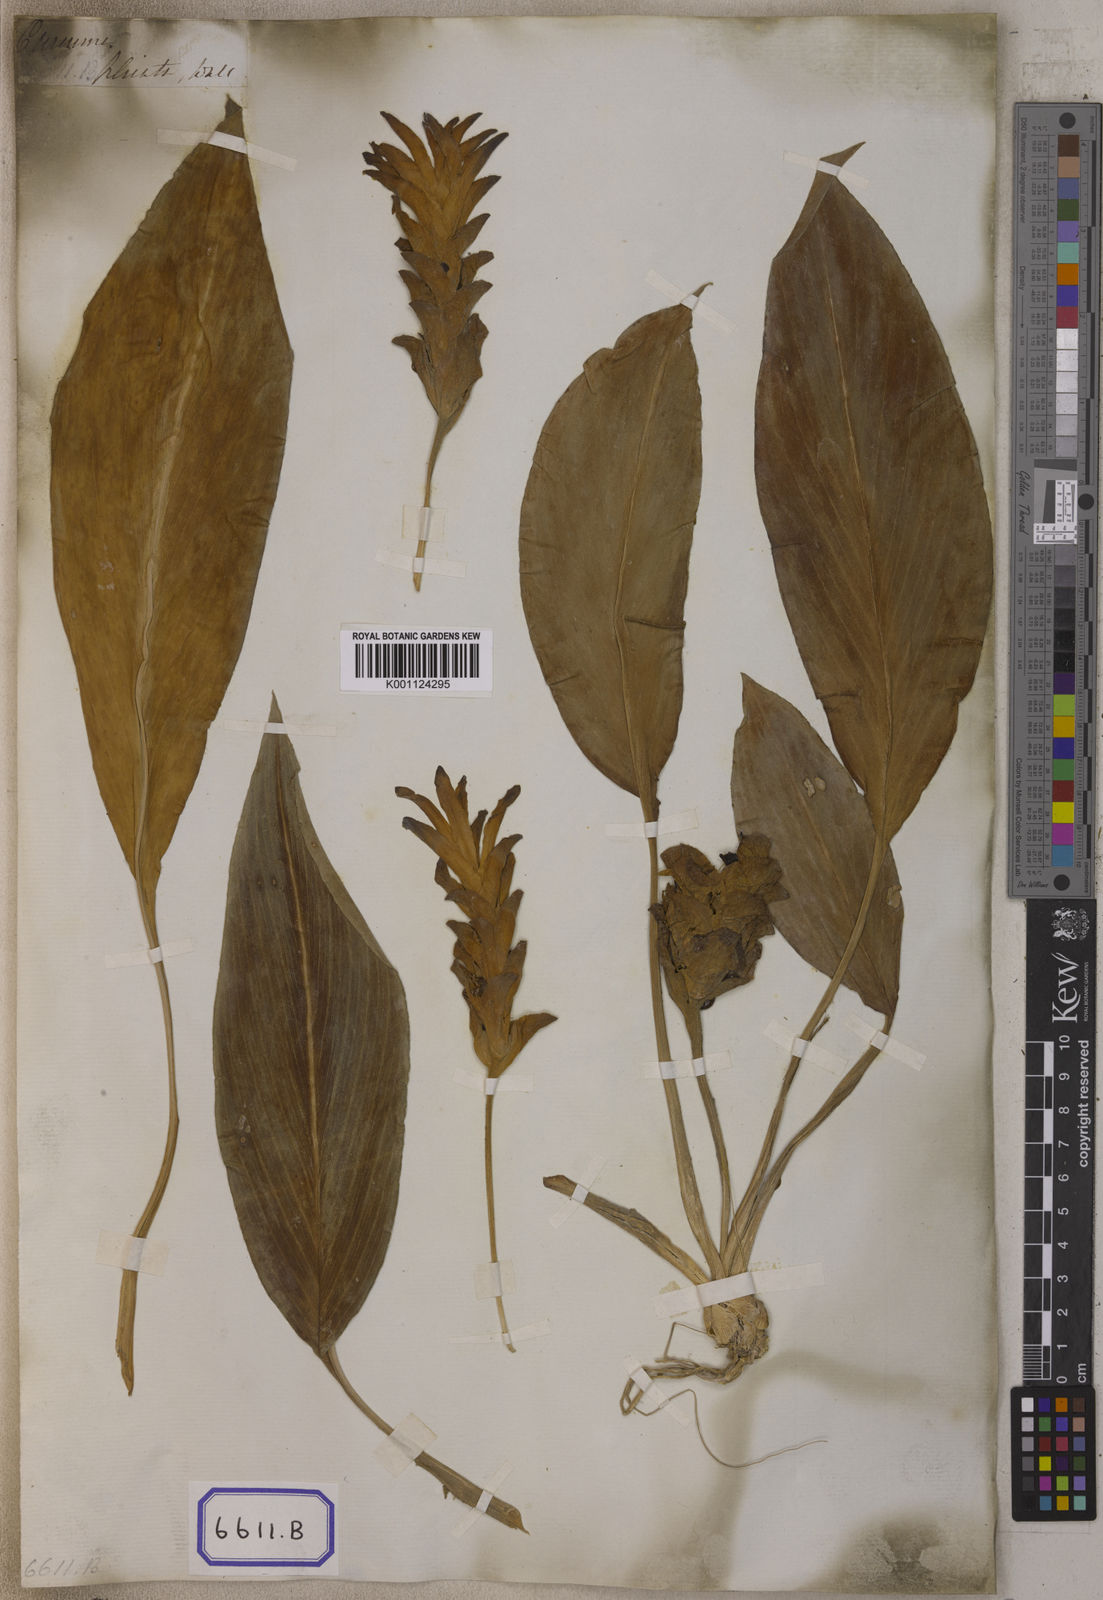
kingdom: Plantae
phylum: Tracheophyta
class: Liliopsida
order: Zingiberales
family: Zingiberaceae
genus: Curcuma
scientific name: Curcuma
